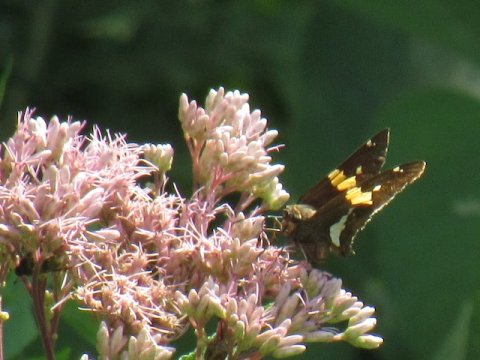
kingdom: Animalia
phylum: Arthropoda
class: Insecta
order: Lepidoptera
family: Hesperiidae
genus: Epargyreus
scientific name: Epargyreus clarus
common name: Silver-spotted Skipper
